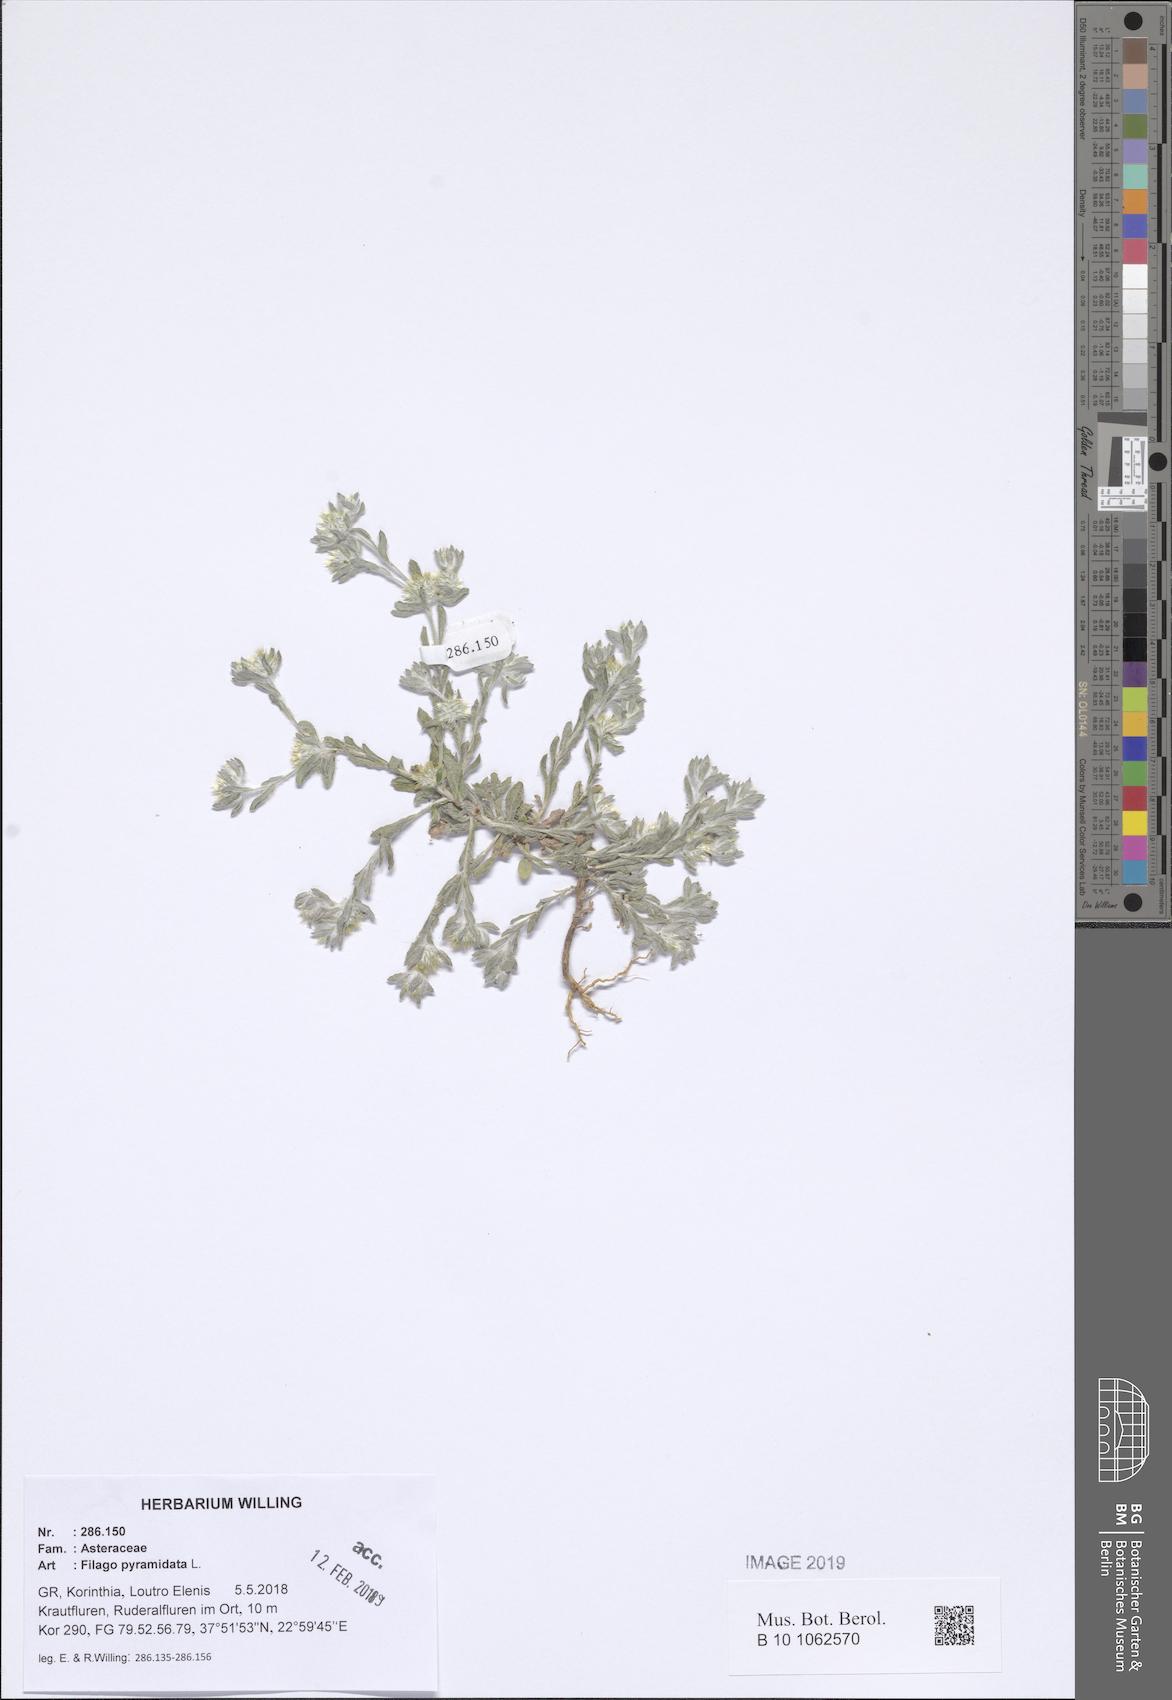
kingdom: Plantae
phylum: Tracheophyta
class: Magnoliopsida
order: Asterales
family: Asteraceae
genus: Filago
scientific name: Filago pyramidata
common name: Broad-leaved cudweed
